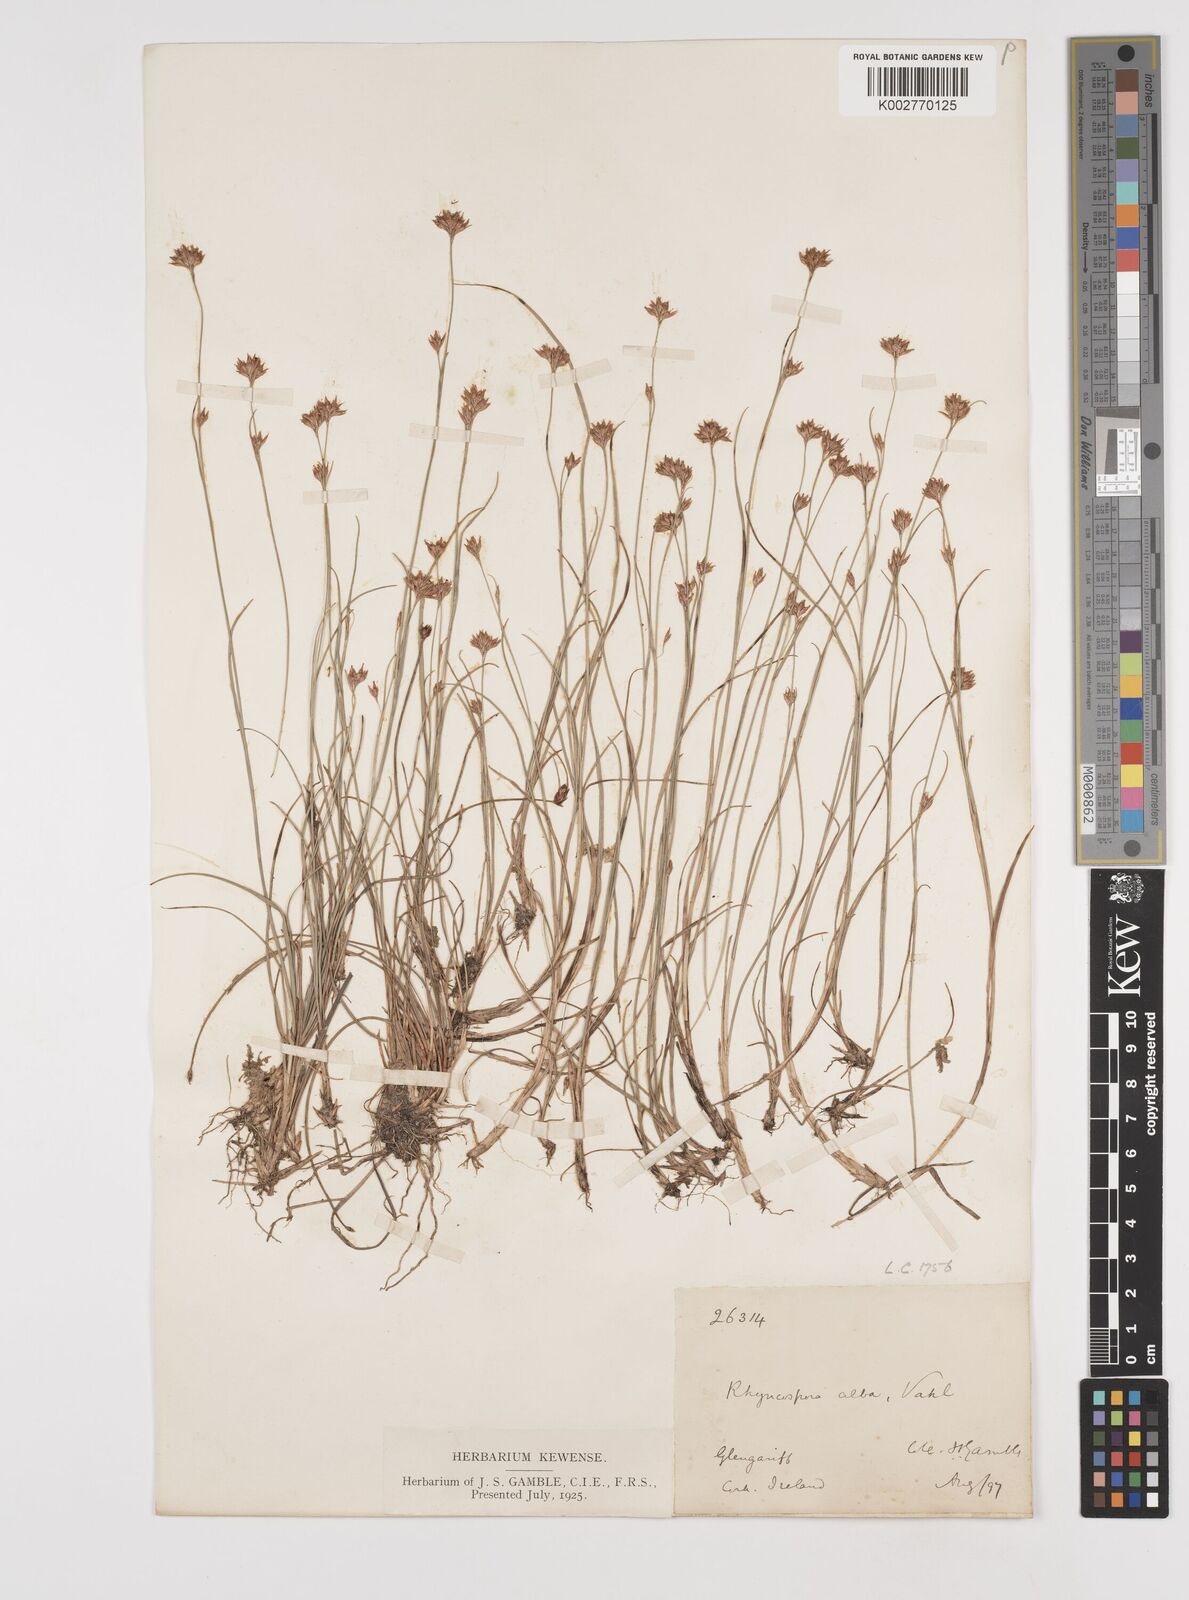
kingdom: Plantae
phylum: Tracheophyta
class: Liliopsida
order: Poales
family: Cyperaceae
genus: Rhynchospora
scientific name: Rhynchospora alba
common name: White beak-sedge
